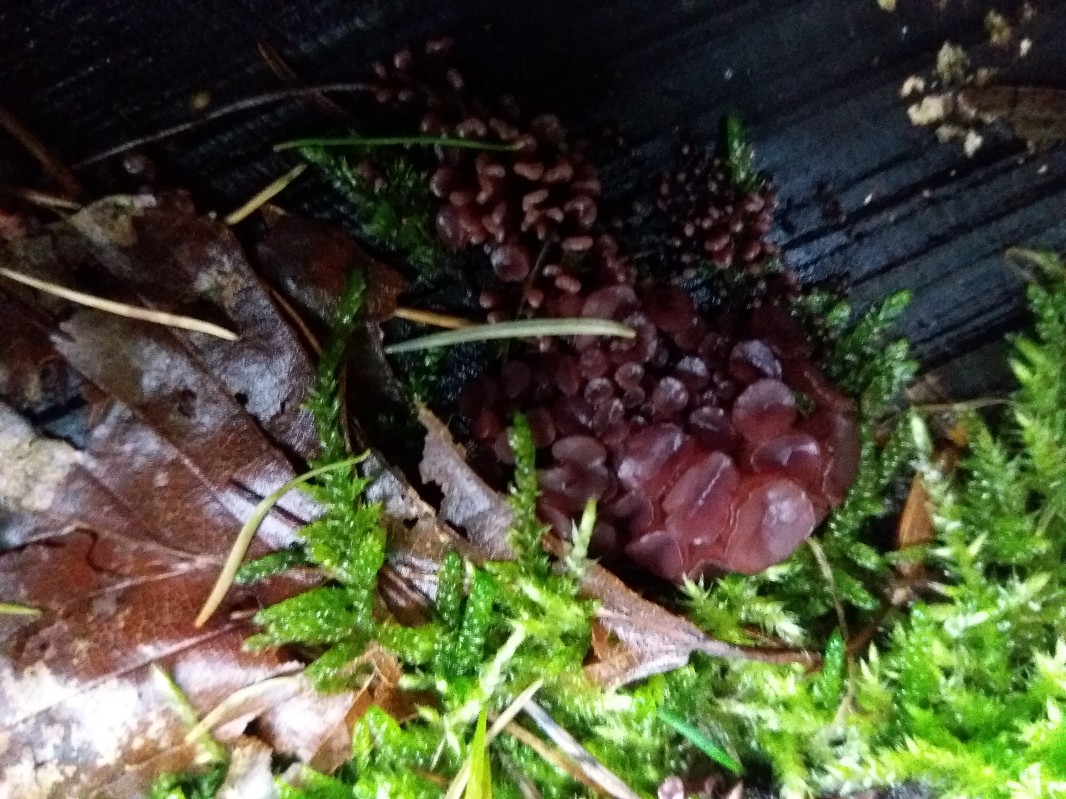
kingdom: Fungi
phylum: Ascomycota
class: Leotiomycetes
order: Helotiales
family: Gelatinodiscaceae
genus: Ascocoryne
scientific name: Ascocoryne sarcoides
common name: rødlilla sejskive
